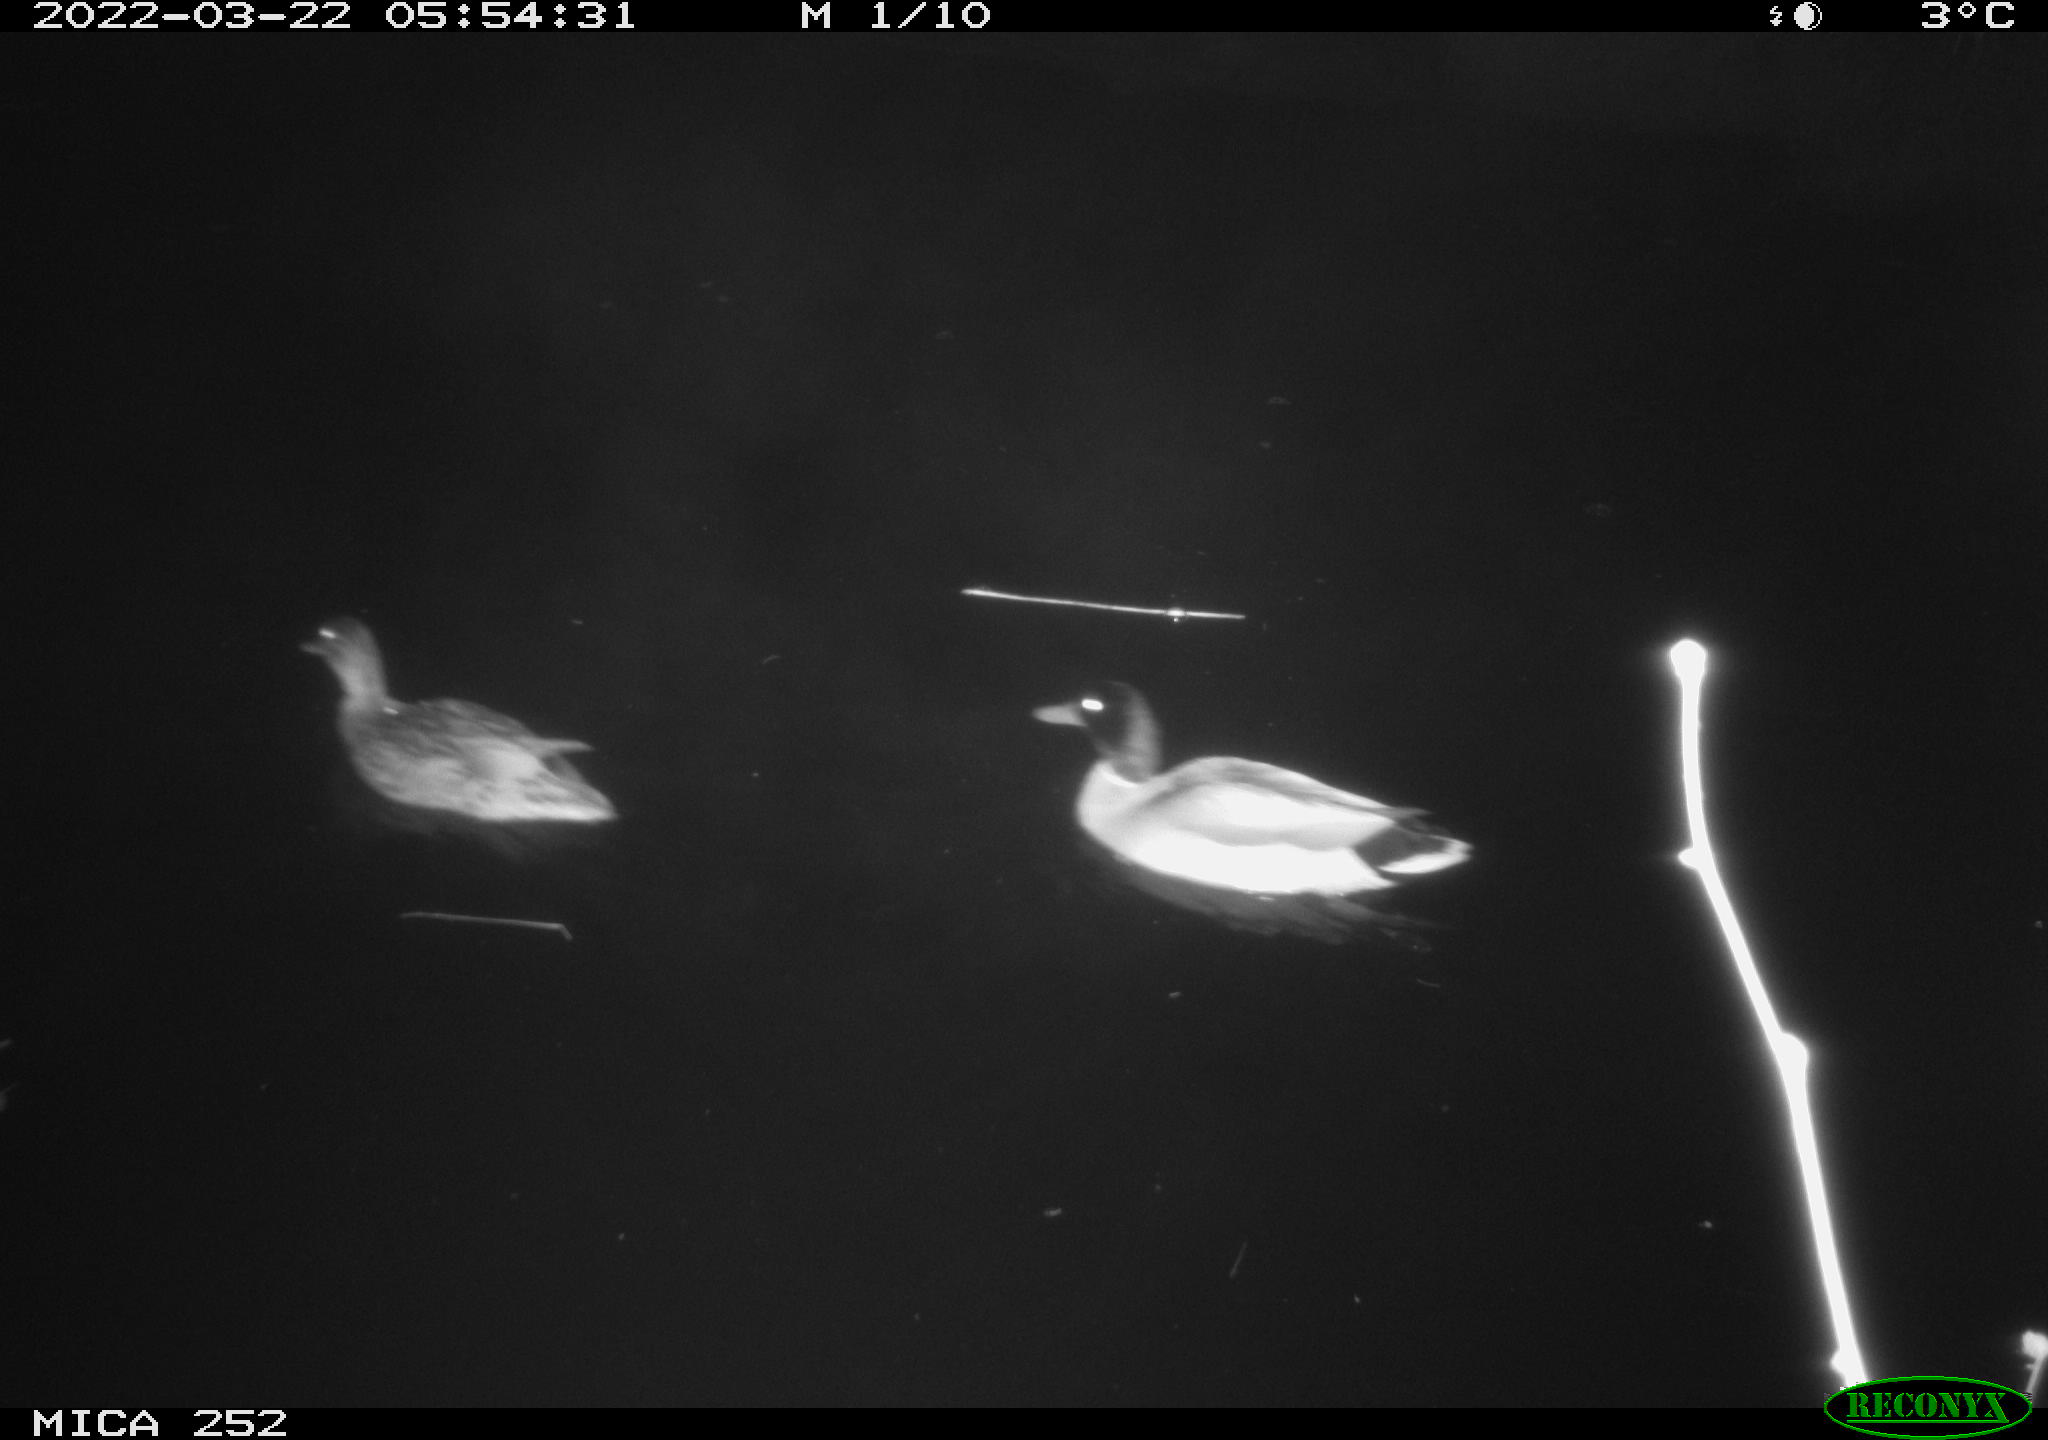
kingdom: Animalia
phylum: Chordata
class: Aves
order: Anseriformes
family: Anatidae
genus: Anas
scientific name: Anas platyrhynchos
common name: Mallard
